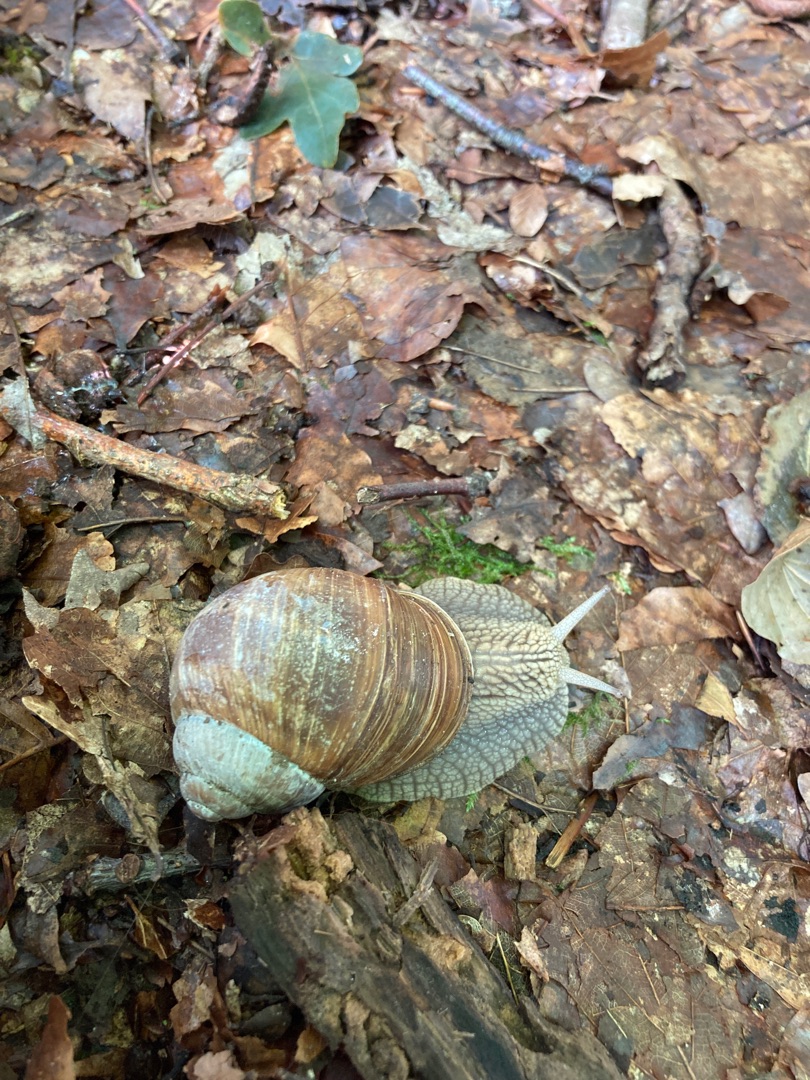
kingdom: Animalia
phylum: Mollusca
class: Gastropoda
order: Stylommatophora
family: Helicidae
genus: Helix
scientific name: Helix pomatia
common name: Vinbjergsnegl
